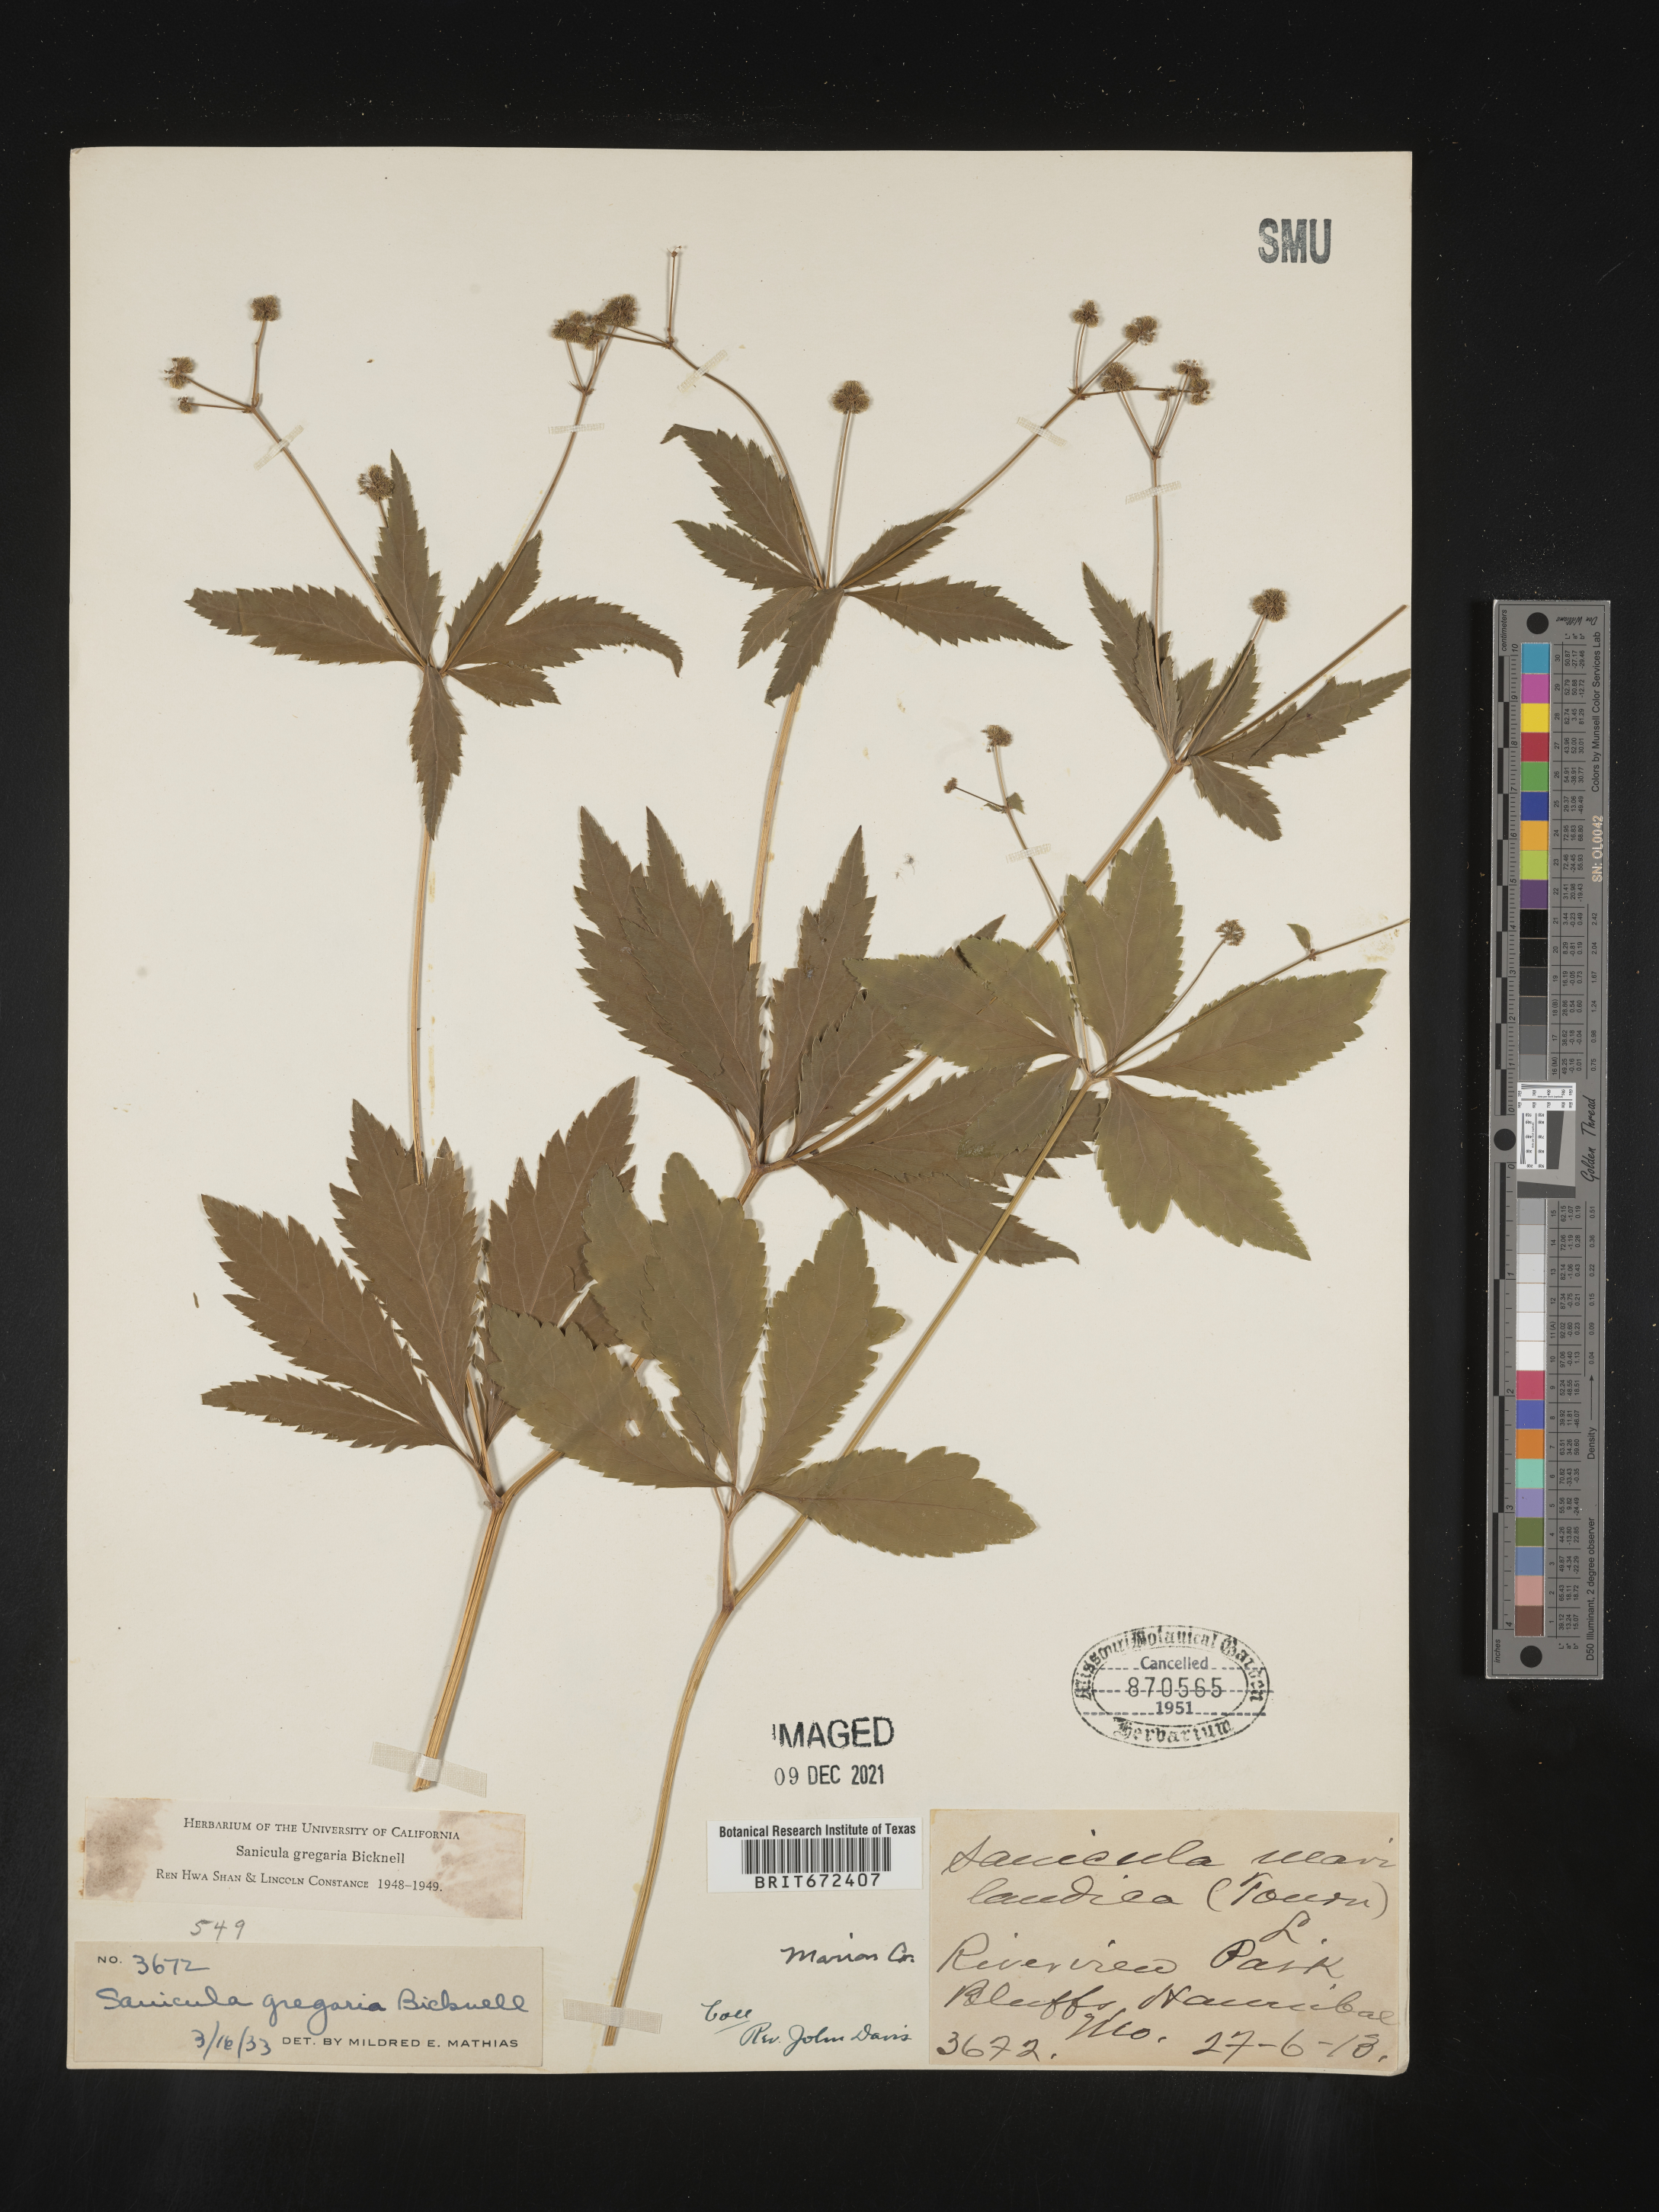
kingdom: Plantae
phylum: Tracheophyta
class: Magnoliopsida
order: Apiales
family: Apiaceae
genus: Sanicula
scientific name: Sanicula odorata
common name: Cluster sanicle
